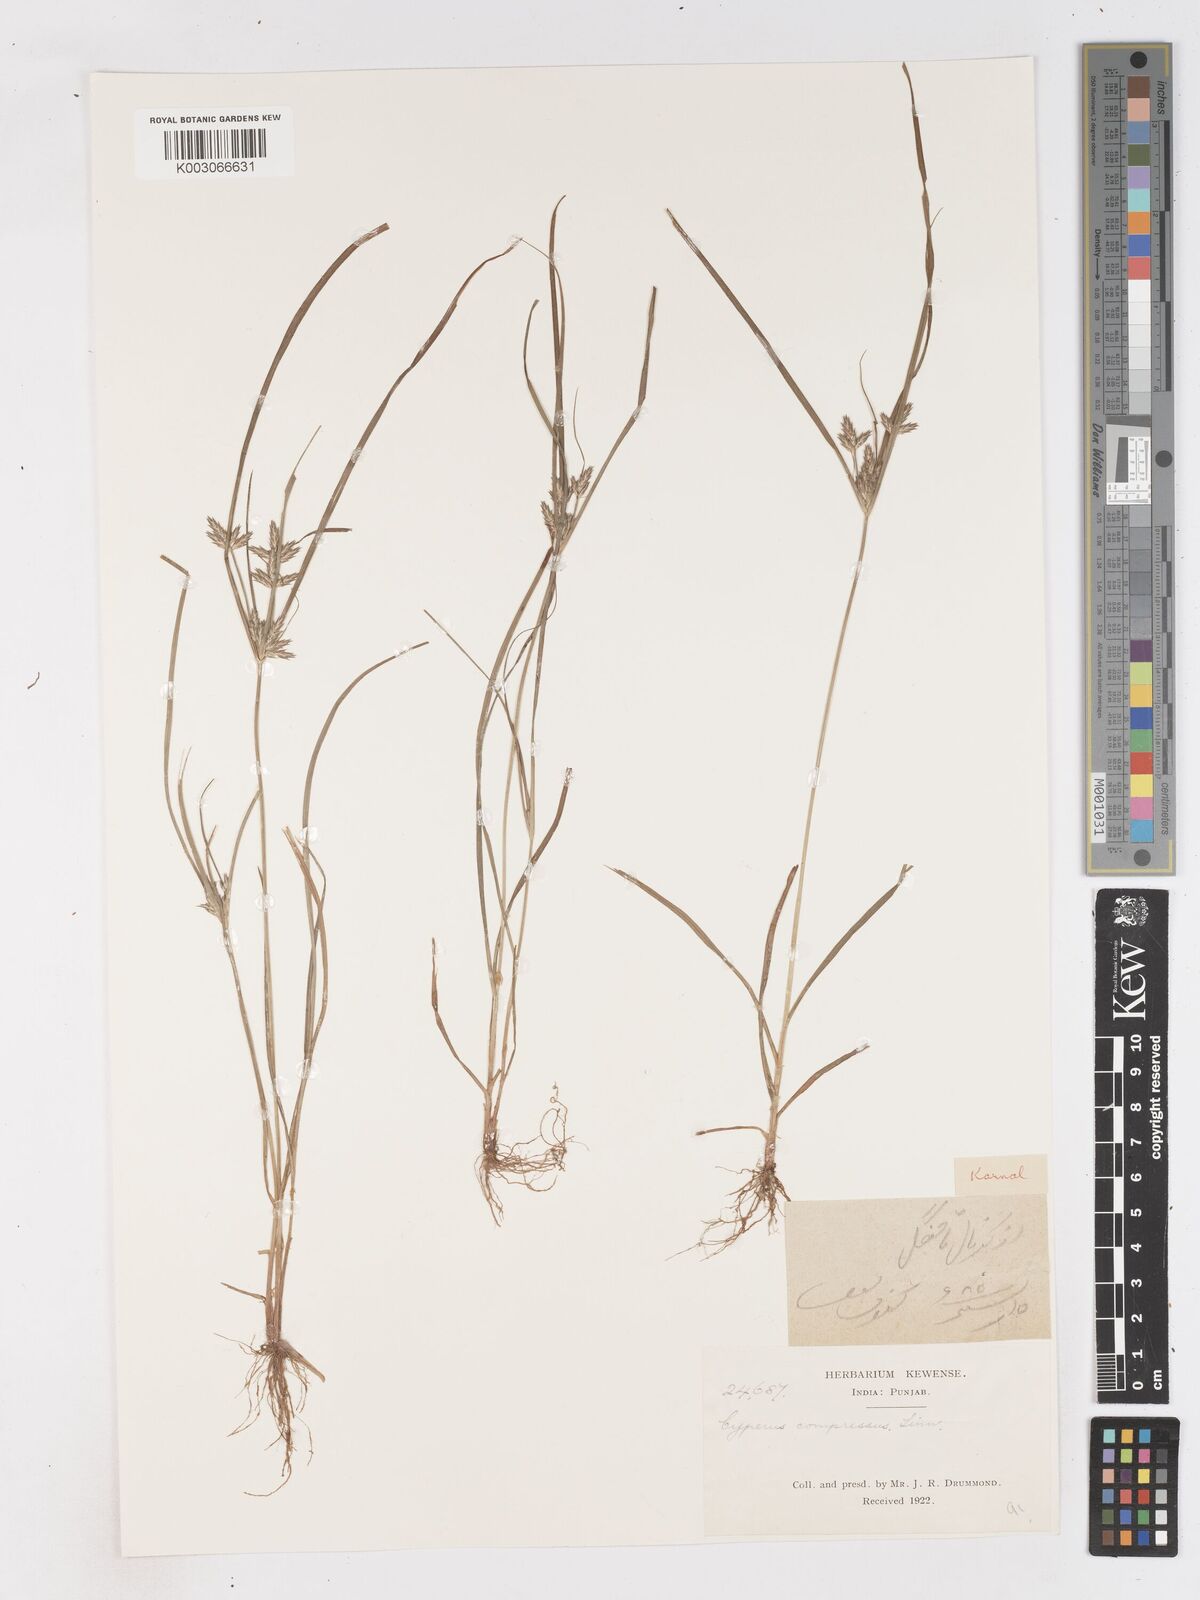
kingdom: Plantae
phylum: Tracheophyta
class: Liliopsida
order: Poales
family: Cyperaceae
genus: Cyperus
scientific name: Cyperus compressus
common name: Poorland flatsedge
